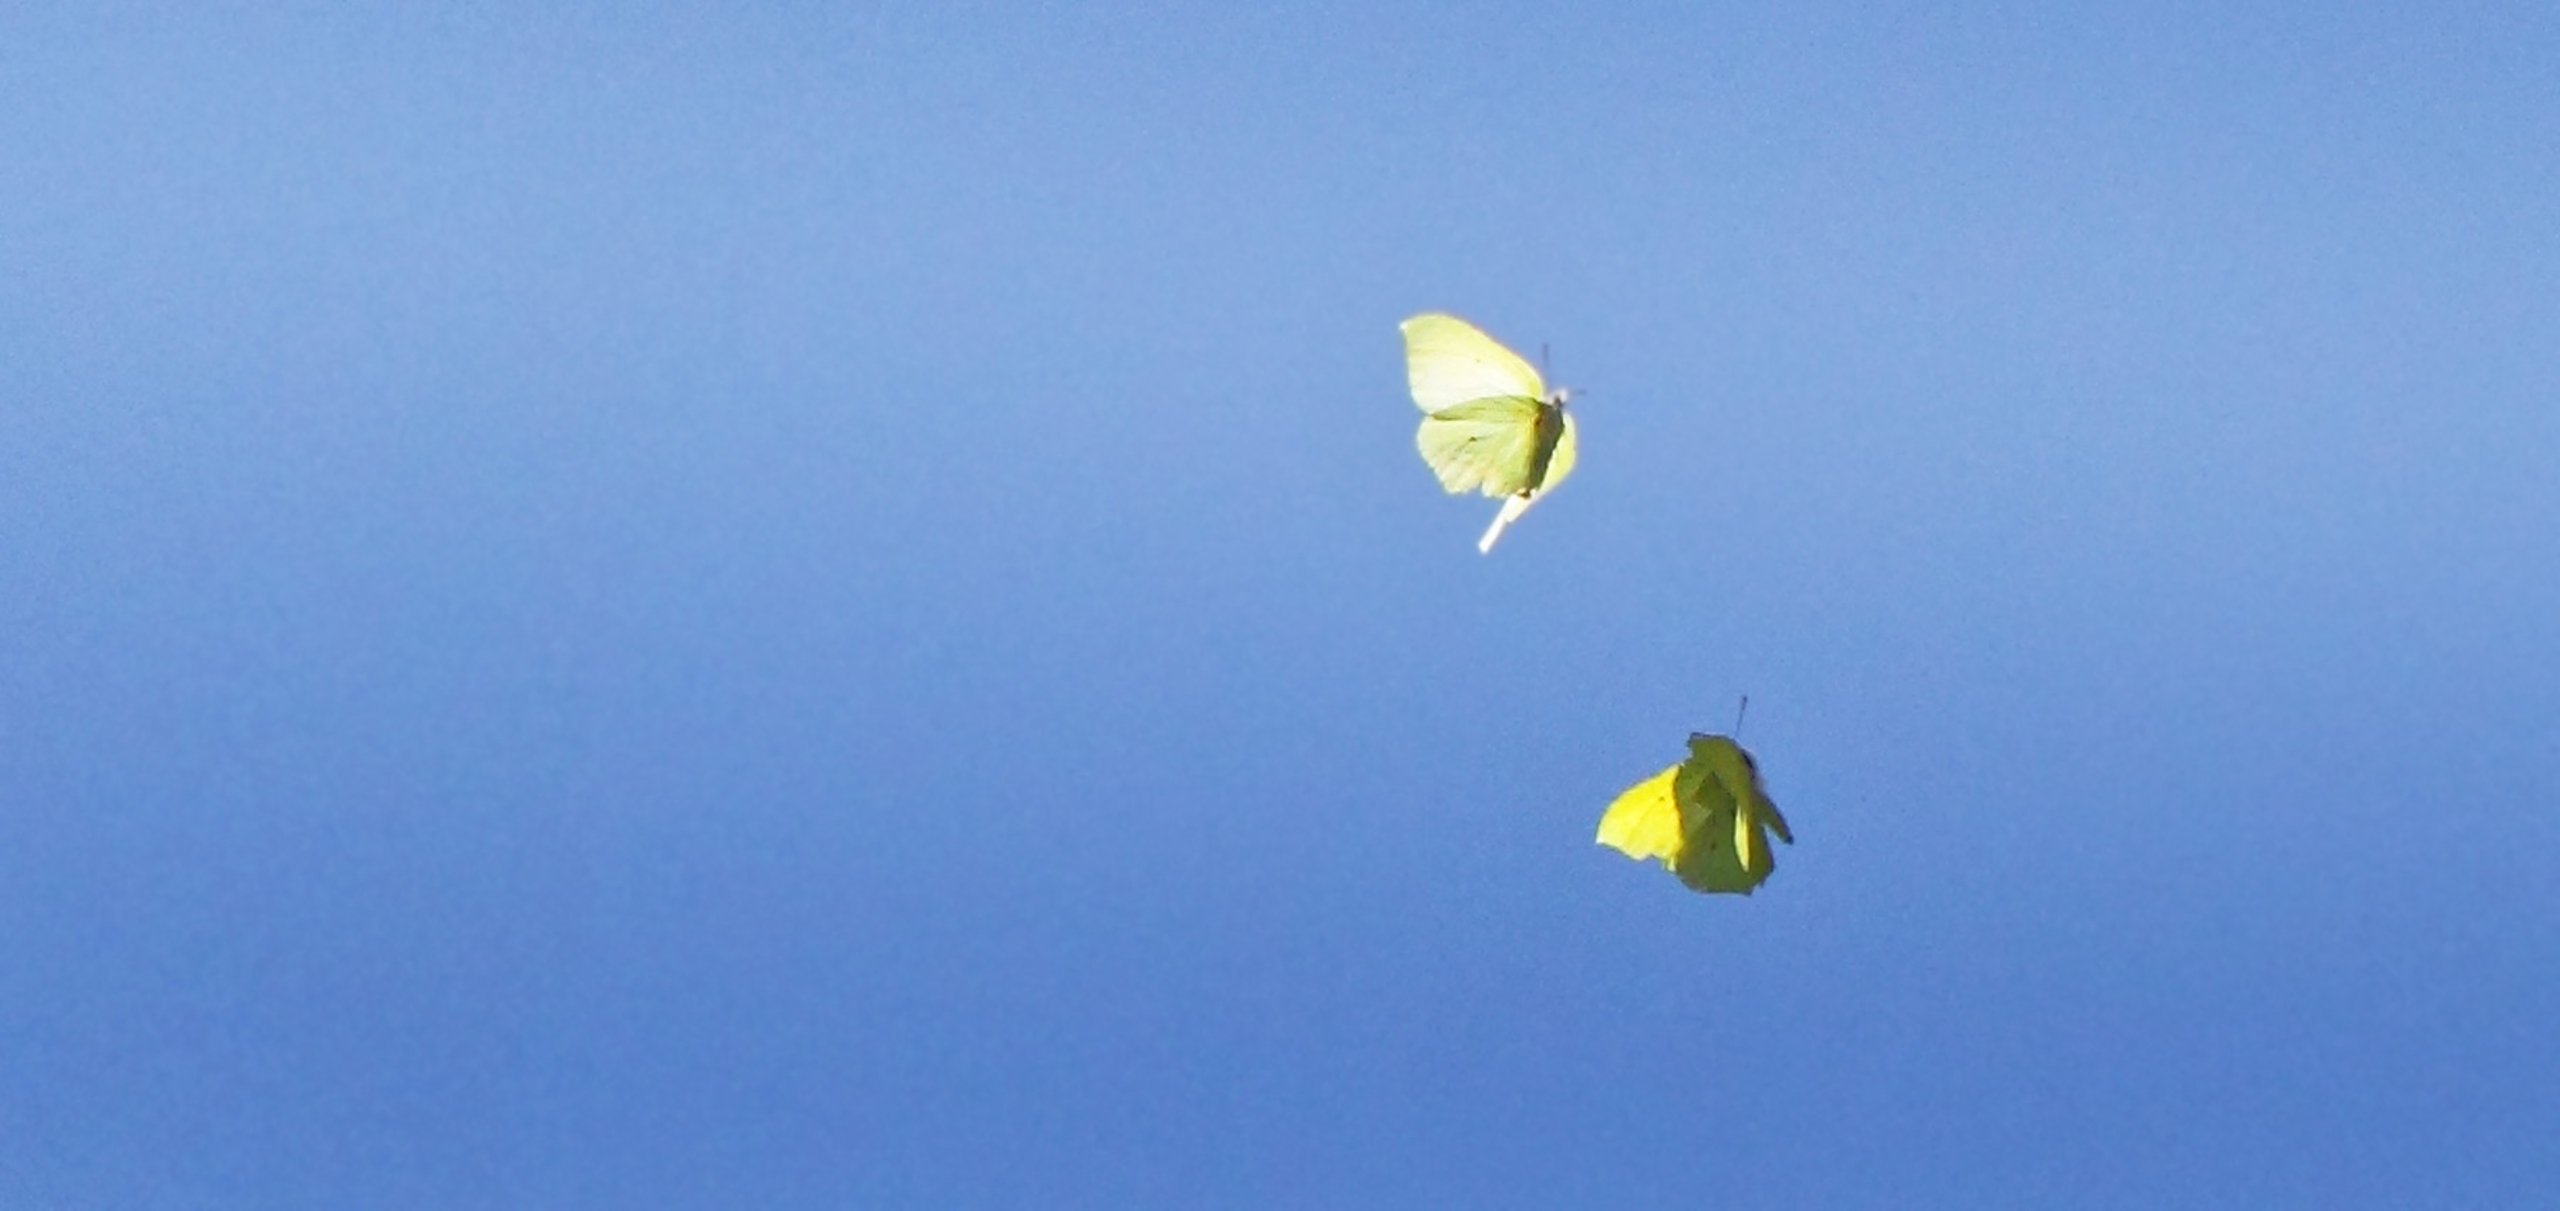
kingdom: Animalia
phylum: Arthropoda
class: Insecta
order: Lepidoptera
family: Pieridae
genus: Gonepteryx
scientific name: Gonepteryx rhamni
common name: Citronsommerfugl
